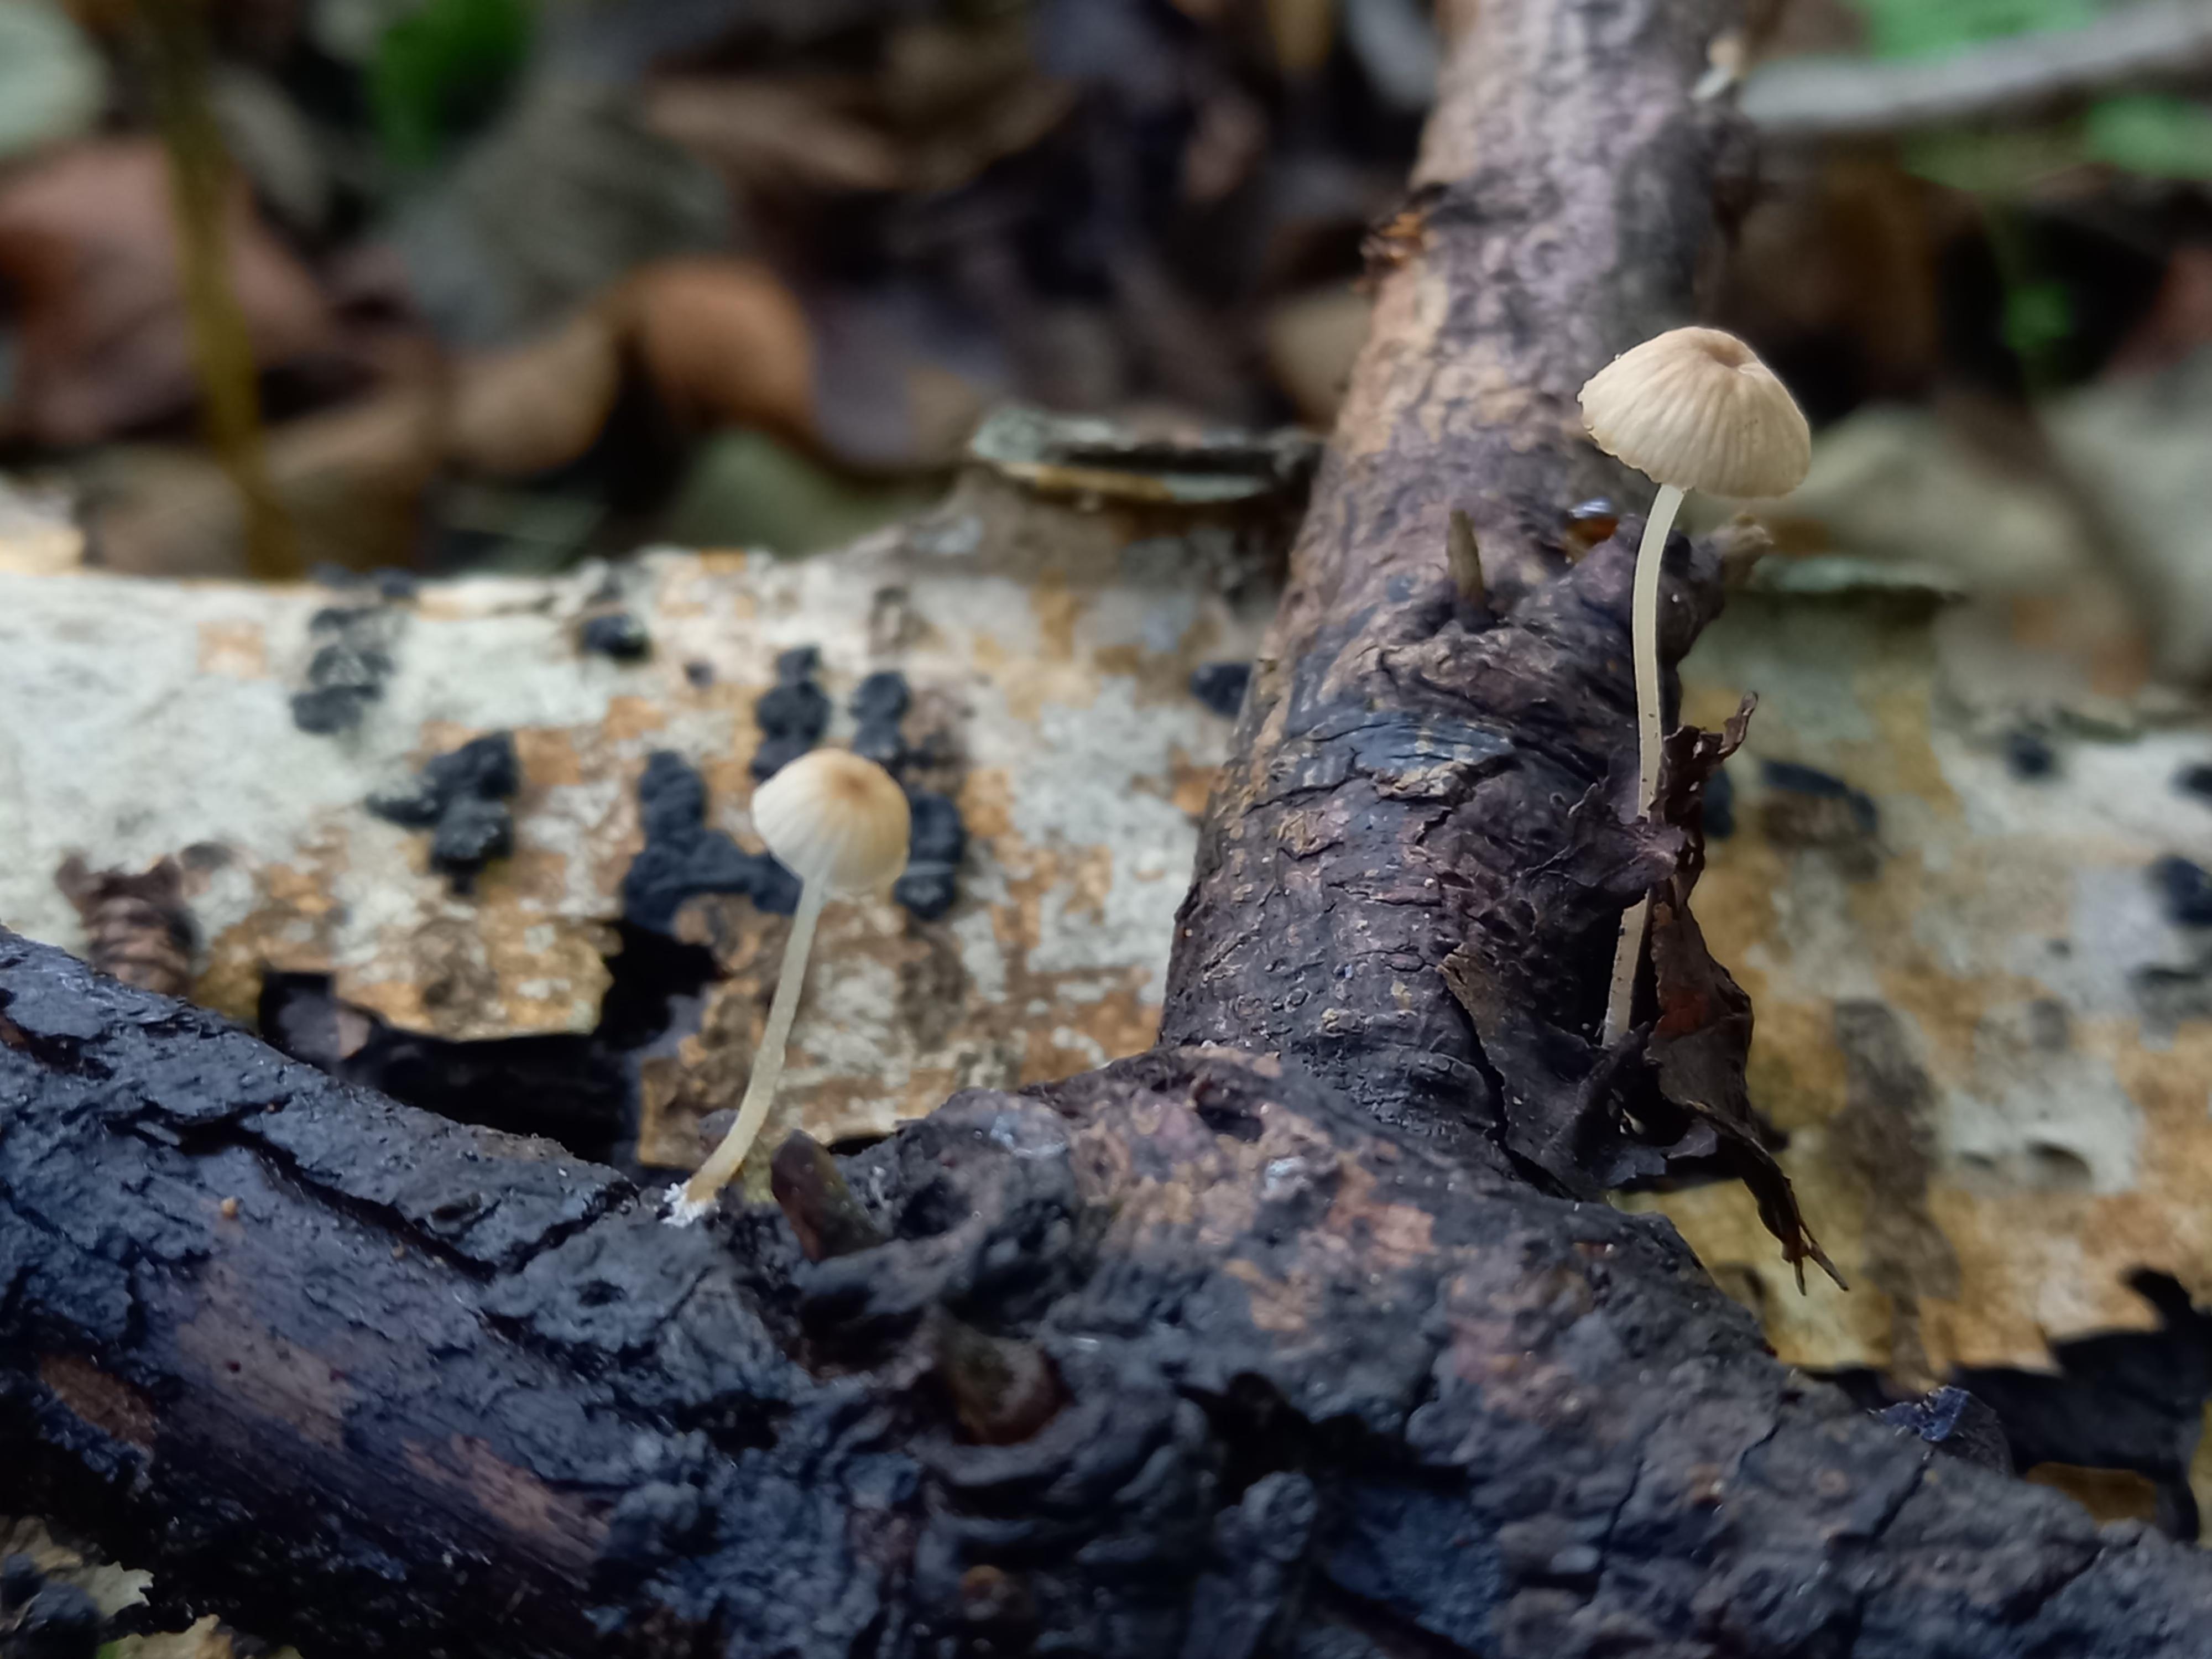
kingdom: Fungi
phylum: Basidiomycota
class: Agaricomycetes
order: Agaricales
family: Porotheleaceae
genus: Phloeomana
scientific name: Phloeomana speirea
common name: kvist-huesvamp
